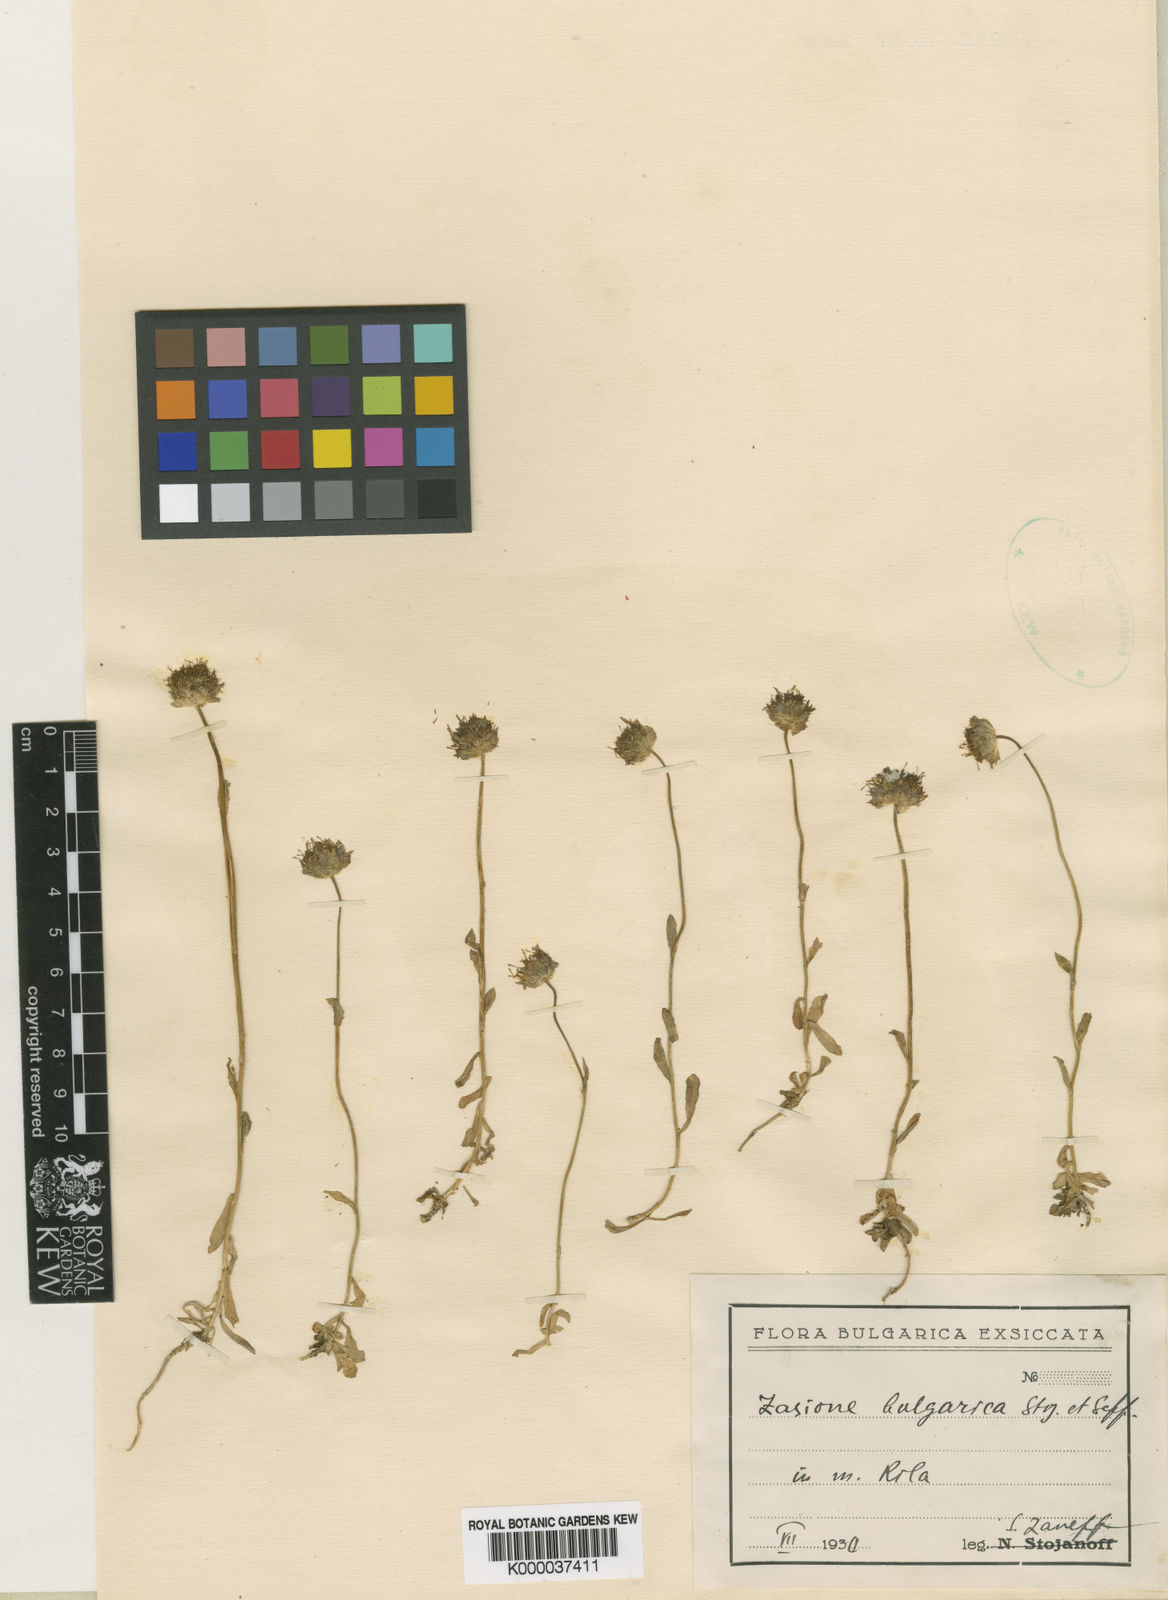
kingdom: Plantae
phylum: Tracheophyta
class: Magnoliopsida
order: Asterales
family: Campanulaceae
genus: Jasione
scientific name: Jasione bulgarica
